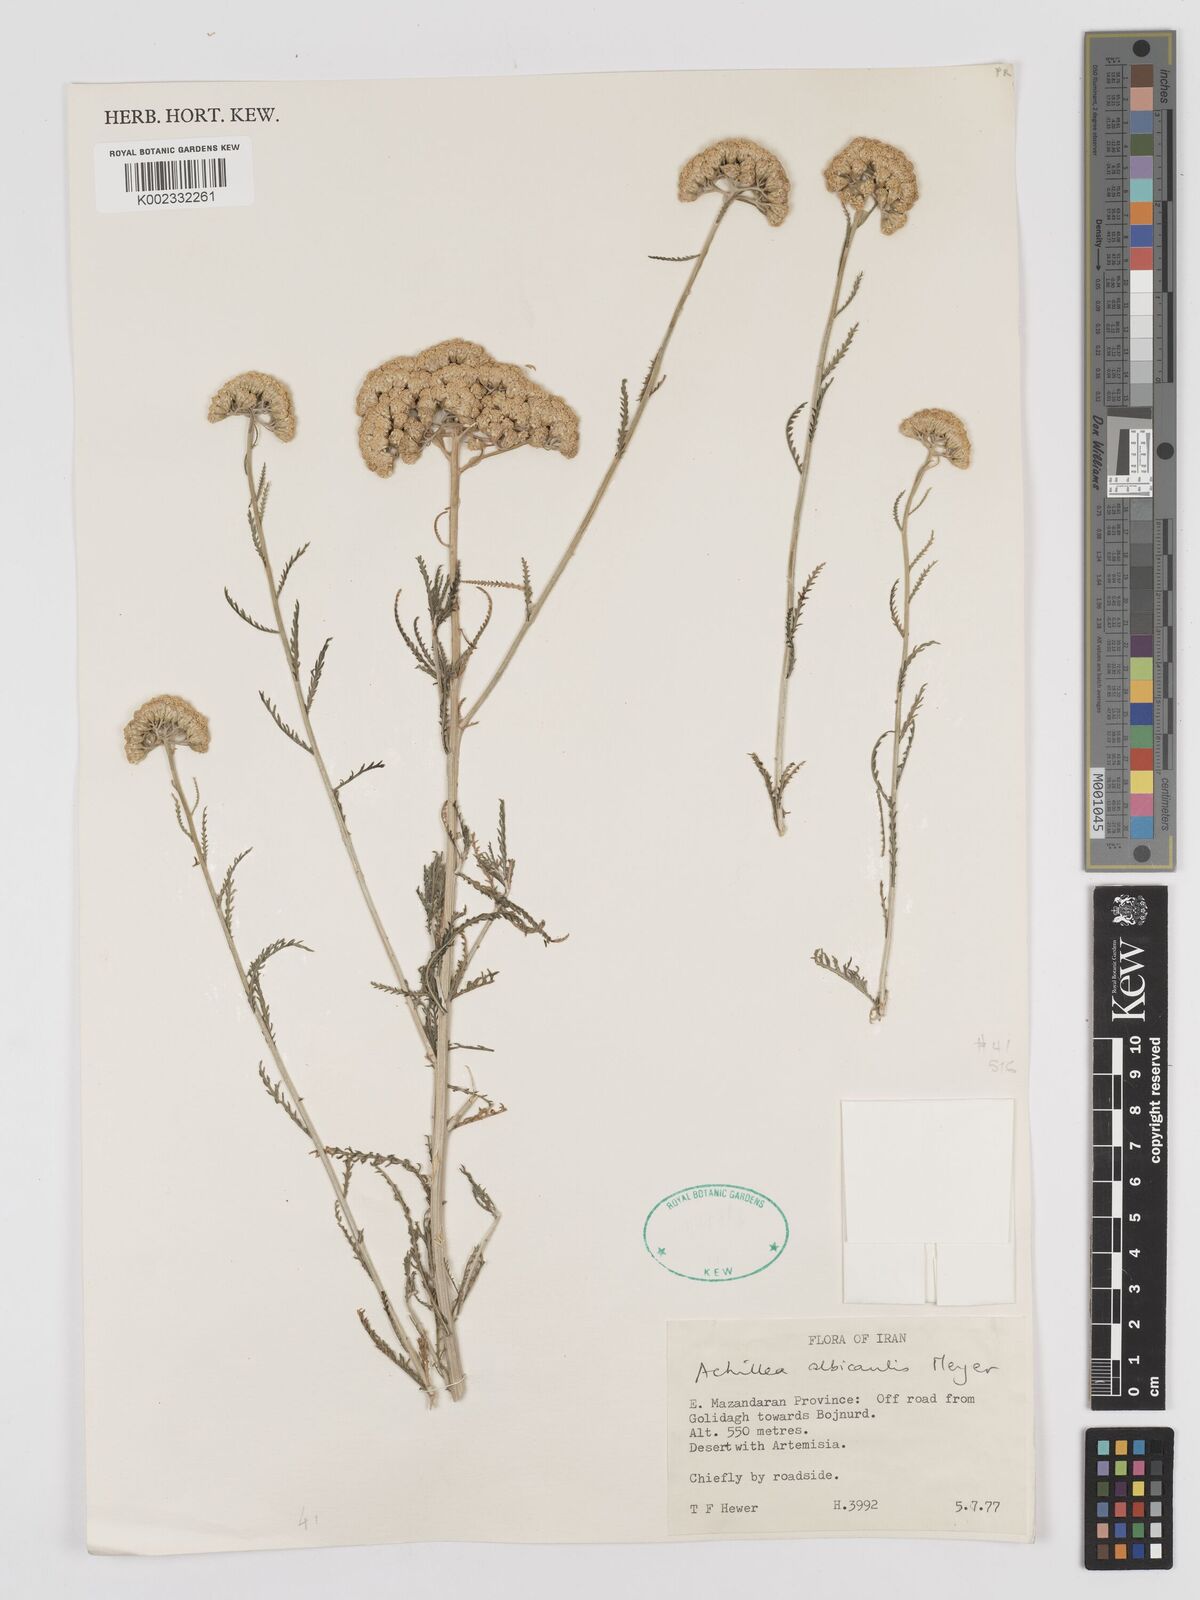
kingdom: Plantae
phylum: Tracheophyta
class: Magnoliopsida
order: Asterales
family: Asteraceae
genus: Achillea
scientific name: Achillea tenuifolia
